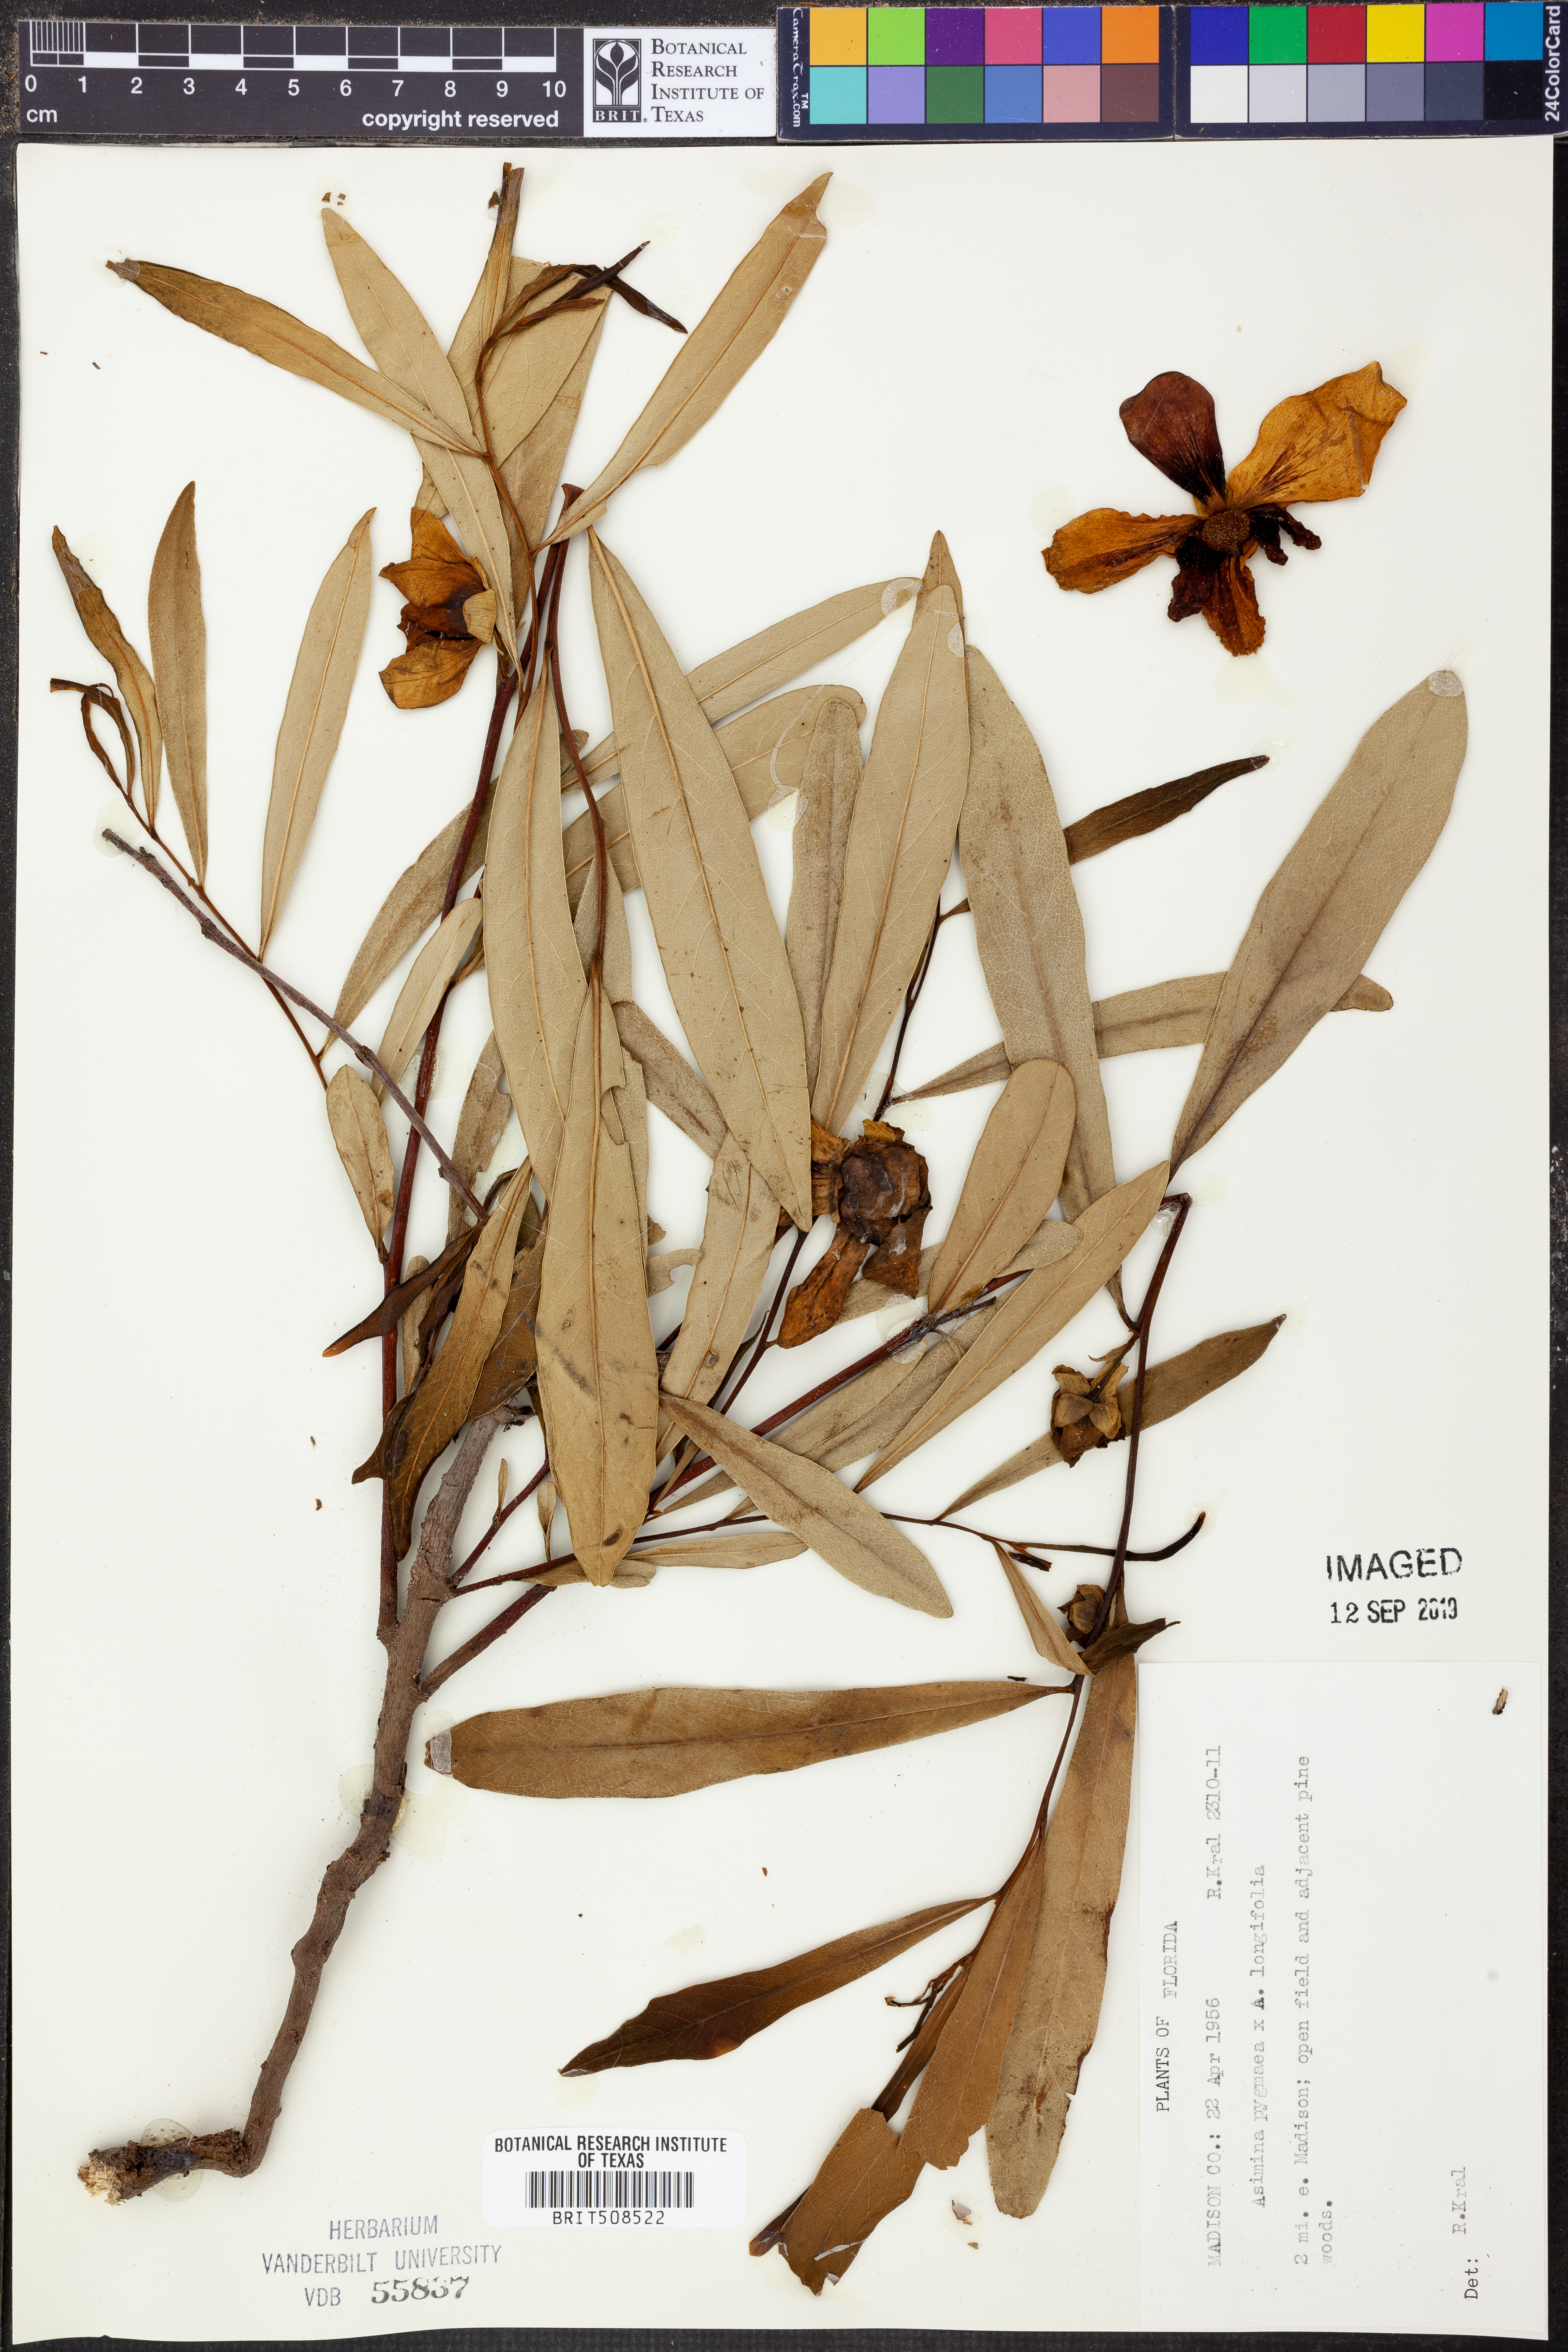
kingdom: Plantae
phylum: Tracheophyta
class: Magnoliopsida
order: Magnoliales
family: Annonaceae
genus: Asimina
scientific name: Asimina pygmaea
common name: Dwarf pawpaw
